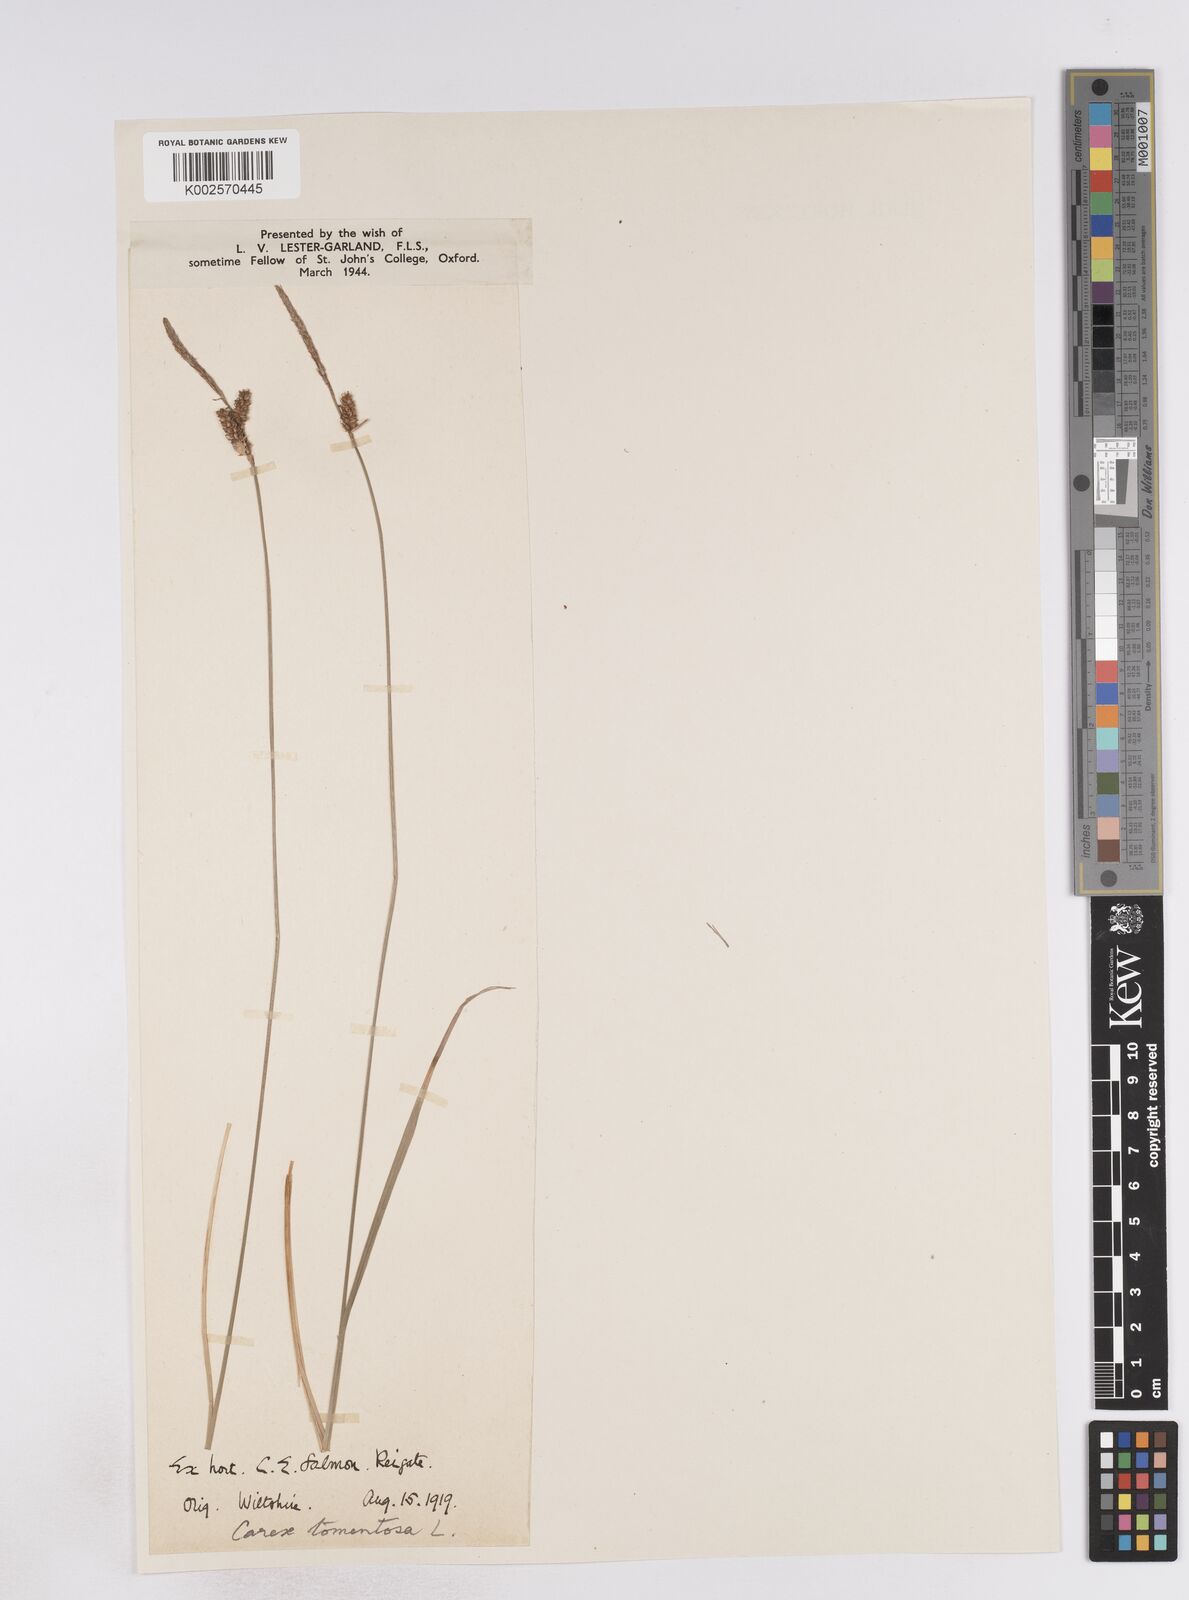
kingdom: Plantae
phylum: Tracheophyta
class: Liliopsida
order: Poales
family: Cyperaceae
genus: Carex
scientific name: Carex montana
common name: Soft-leaved sedge
